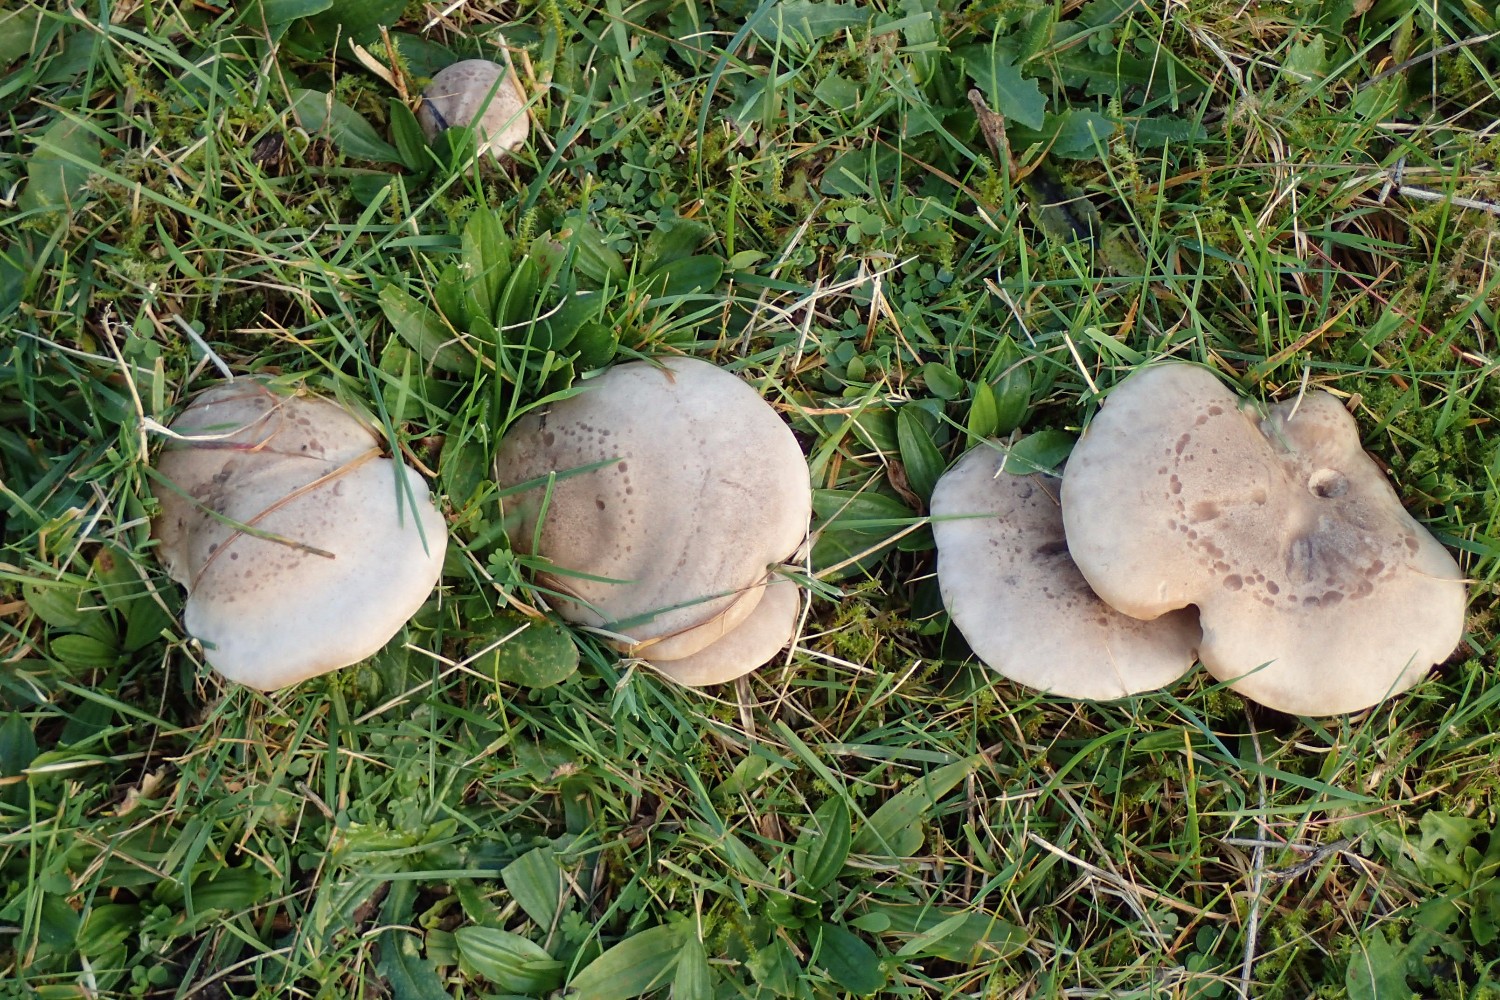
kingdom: Fungi
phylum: Basidiomycota
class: Agaricomycetes
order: Agaricales
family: Tricholomataceae
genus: Lepista
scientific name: Lepista panaeolus
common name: marmoreret hekseringshat
